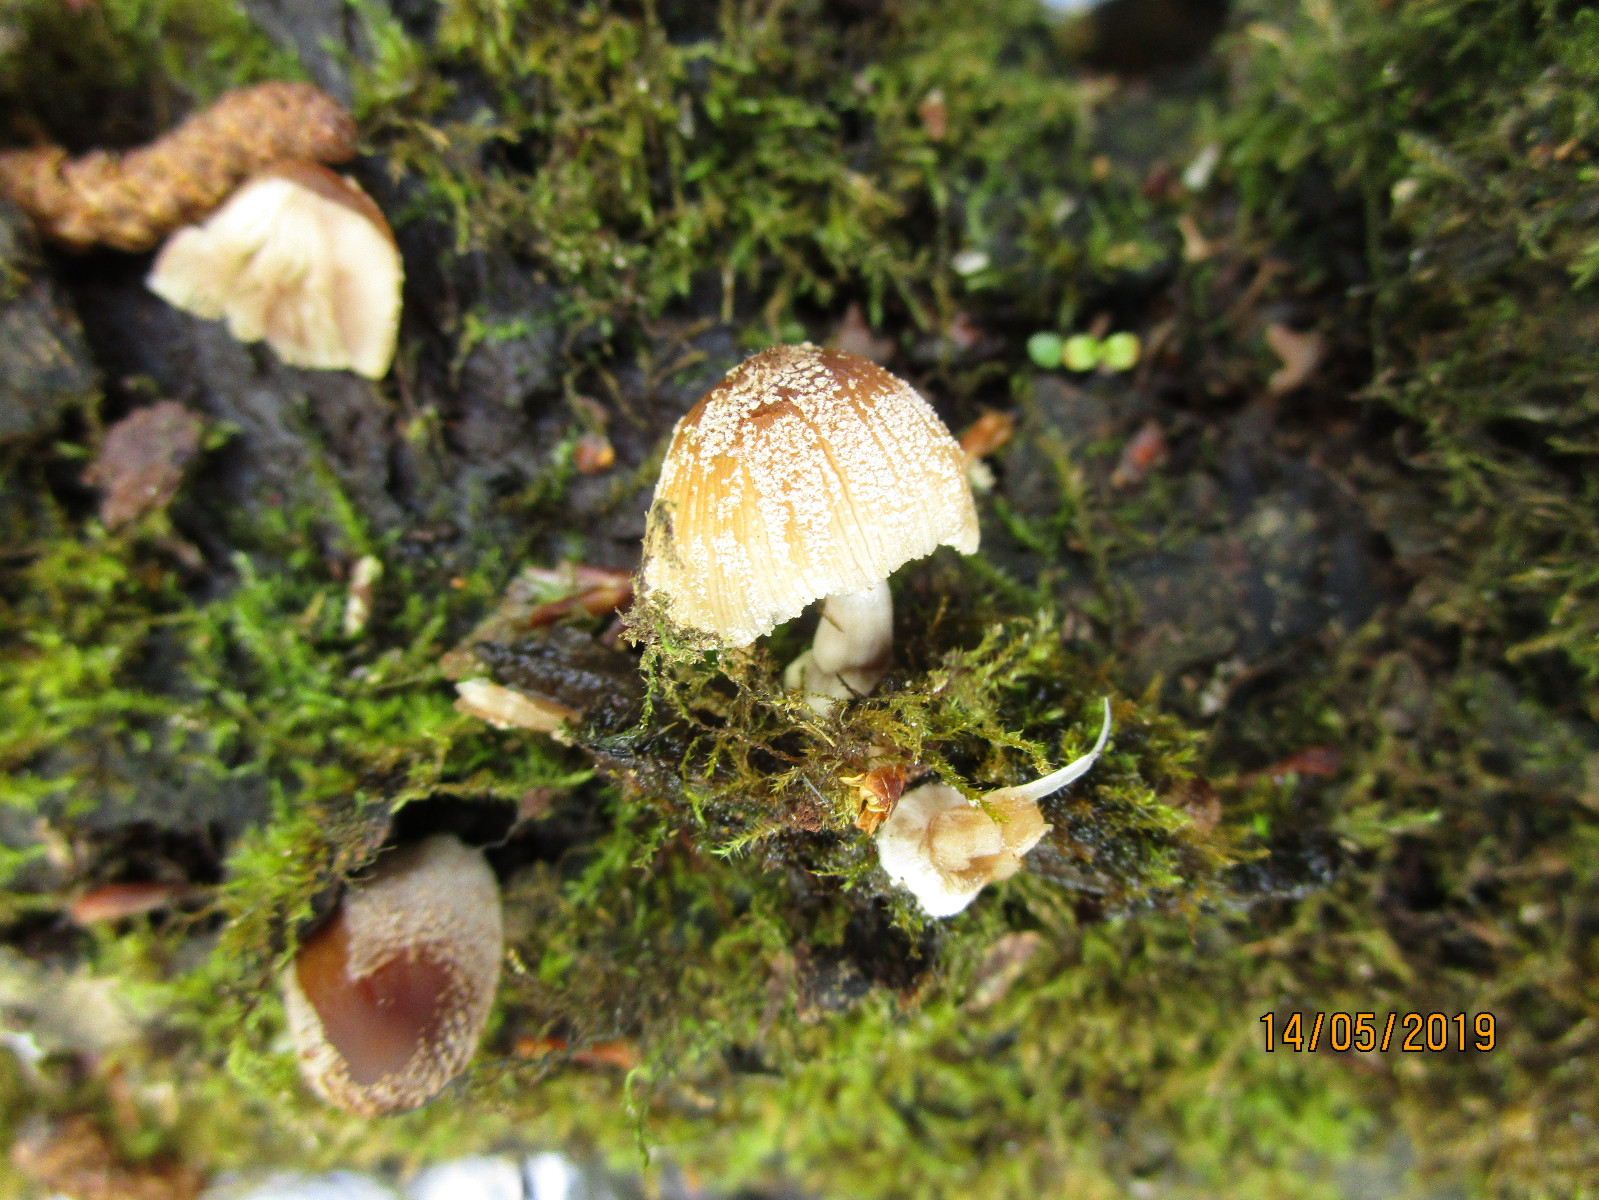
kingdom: Fungi
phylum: Basidiomycota
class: Agaricomycetes
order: Agaricales
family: Psathyrellaceae
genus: Coprinellus
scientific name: Coprinellus radians
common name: grynet blækhat
